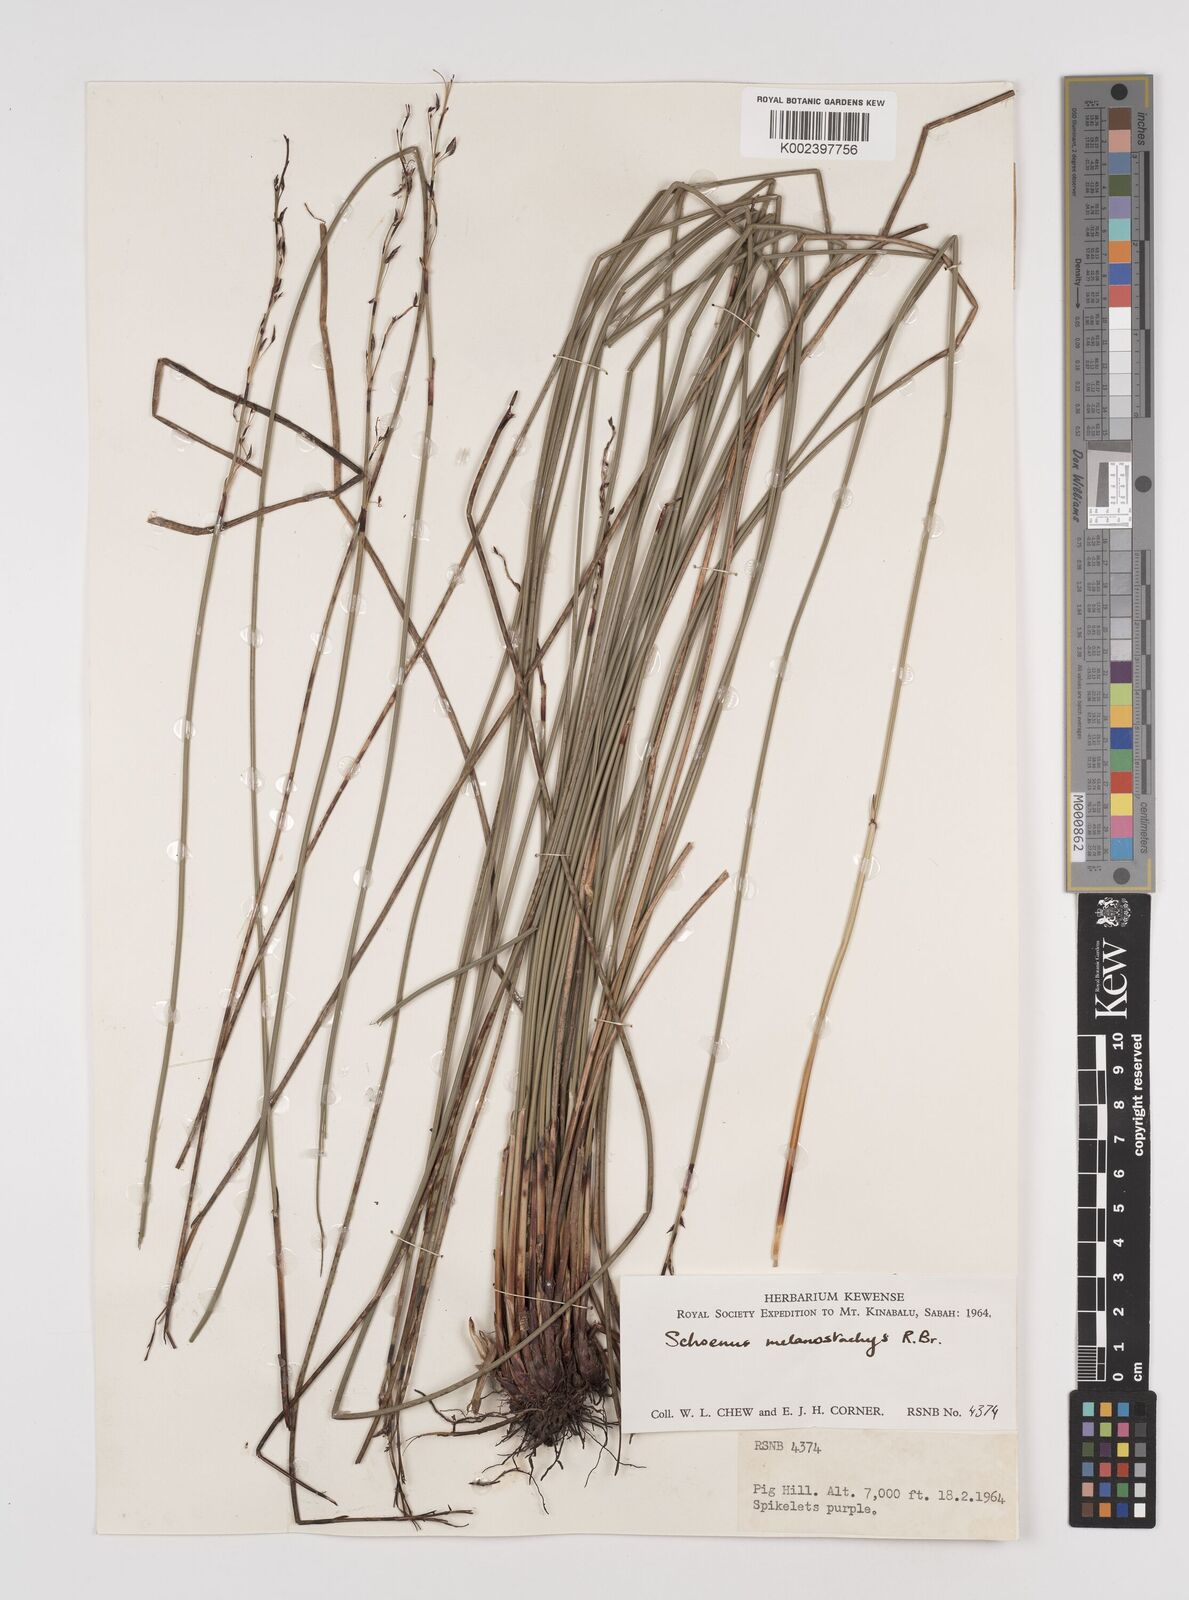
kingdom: Plantae
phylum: Tracheophyta
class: Liliopsida
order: Poales
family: Cyperaceae
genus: Schoenus
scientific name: Schoenus melanostachys
